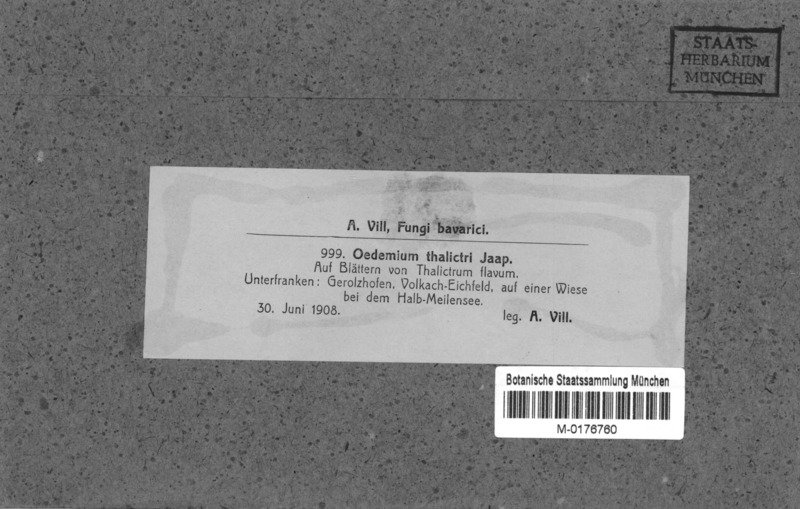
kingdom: Fungi
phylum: Ascomycota
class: Sordariomycetes
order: Coronophorales
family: Chaetosphaerellaceae
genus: Oedemium
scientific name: Oedemium thalictri
